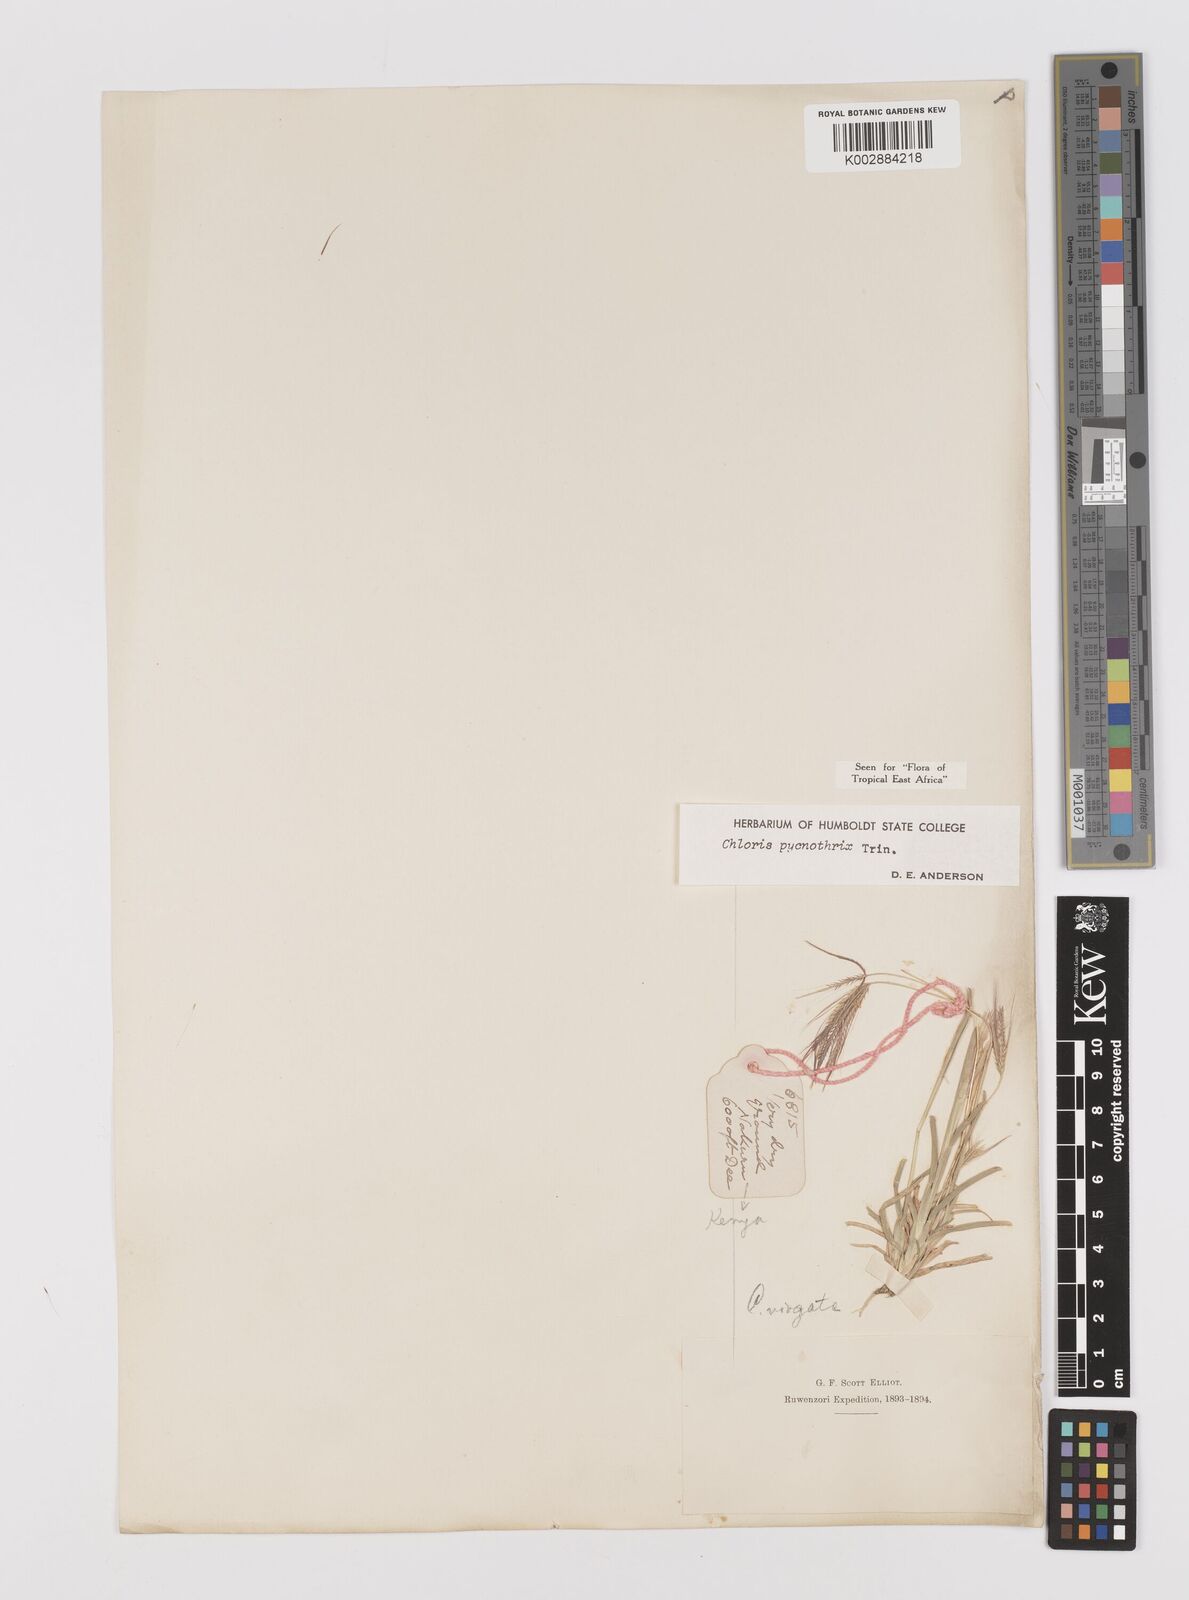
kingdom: Plantae
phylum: Tracheophyta
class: Liliopsida
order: Poales
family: Poaceae
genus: Chloris
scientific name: Chloris pycnothrix
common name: Spiderweb chloris
